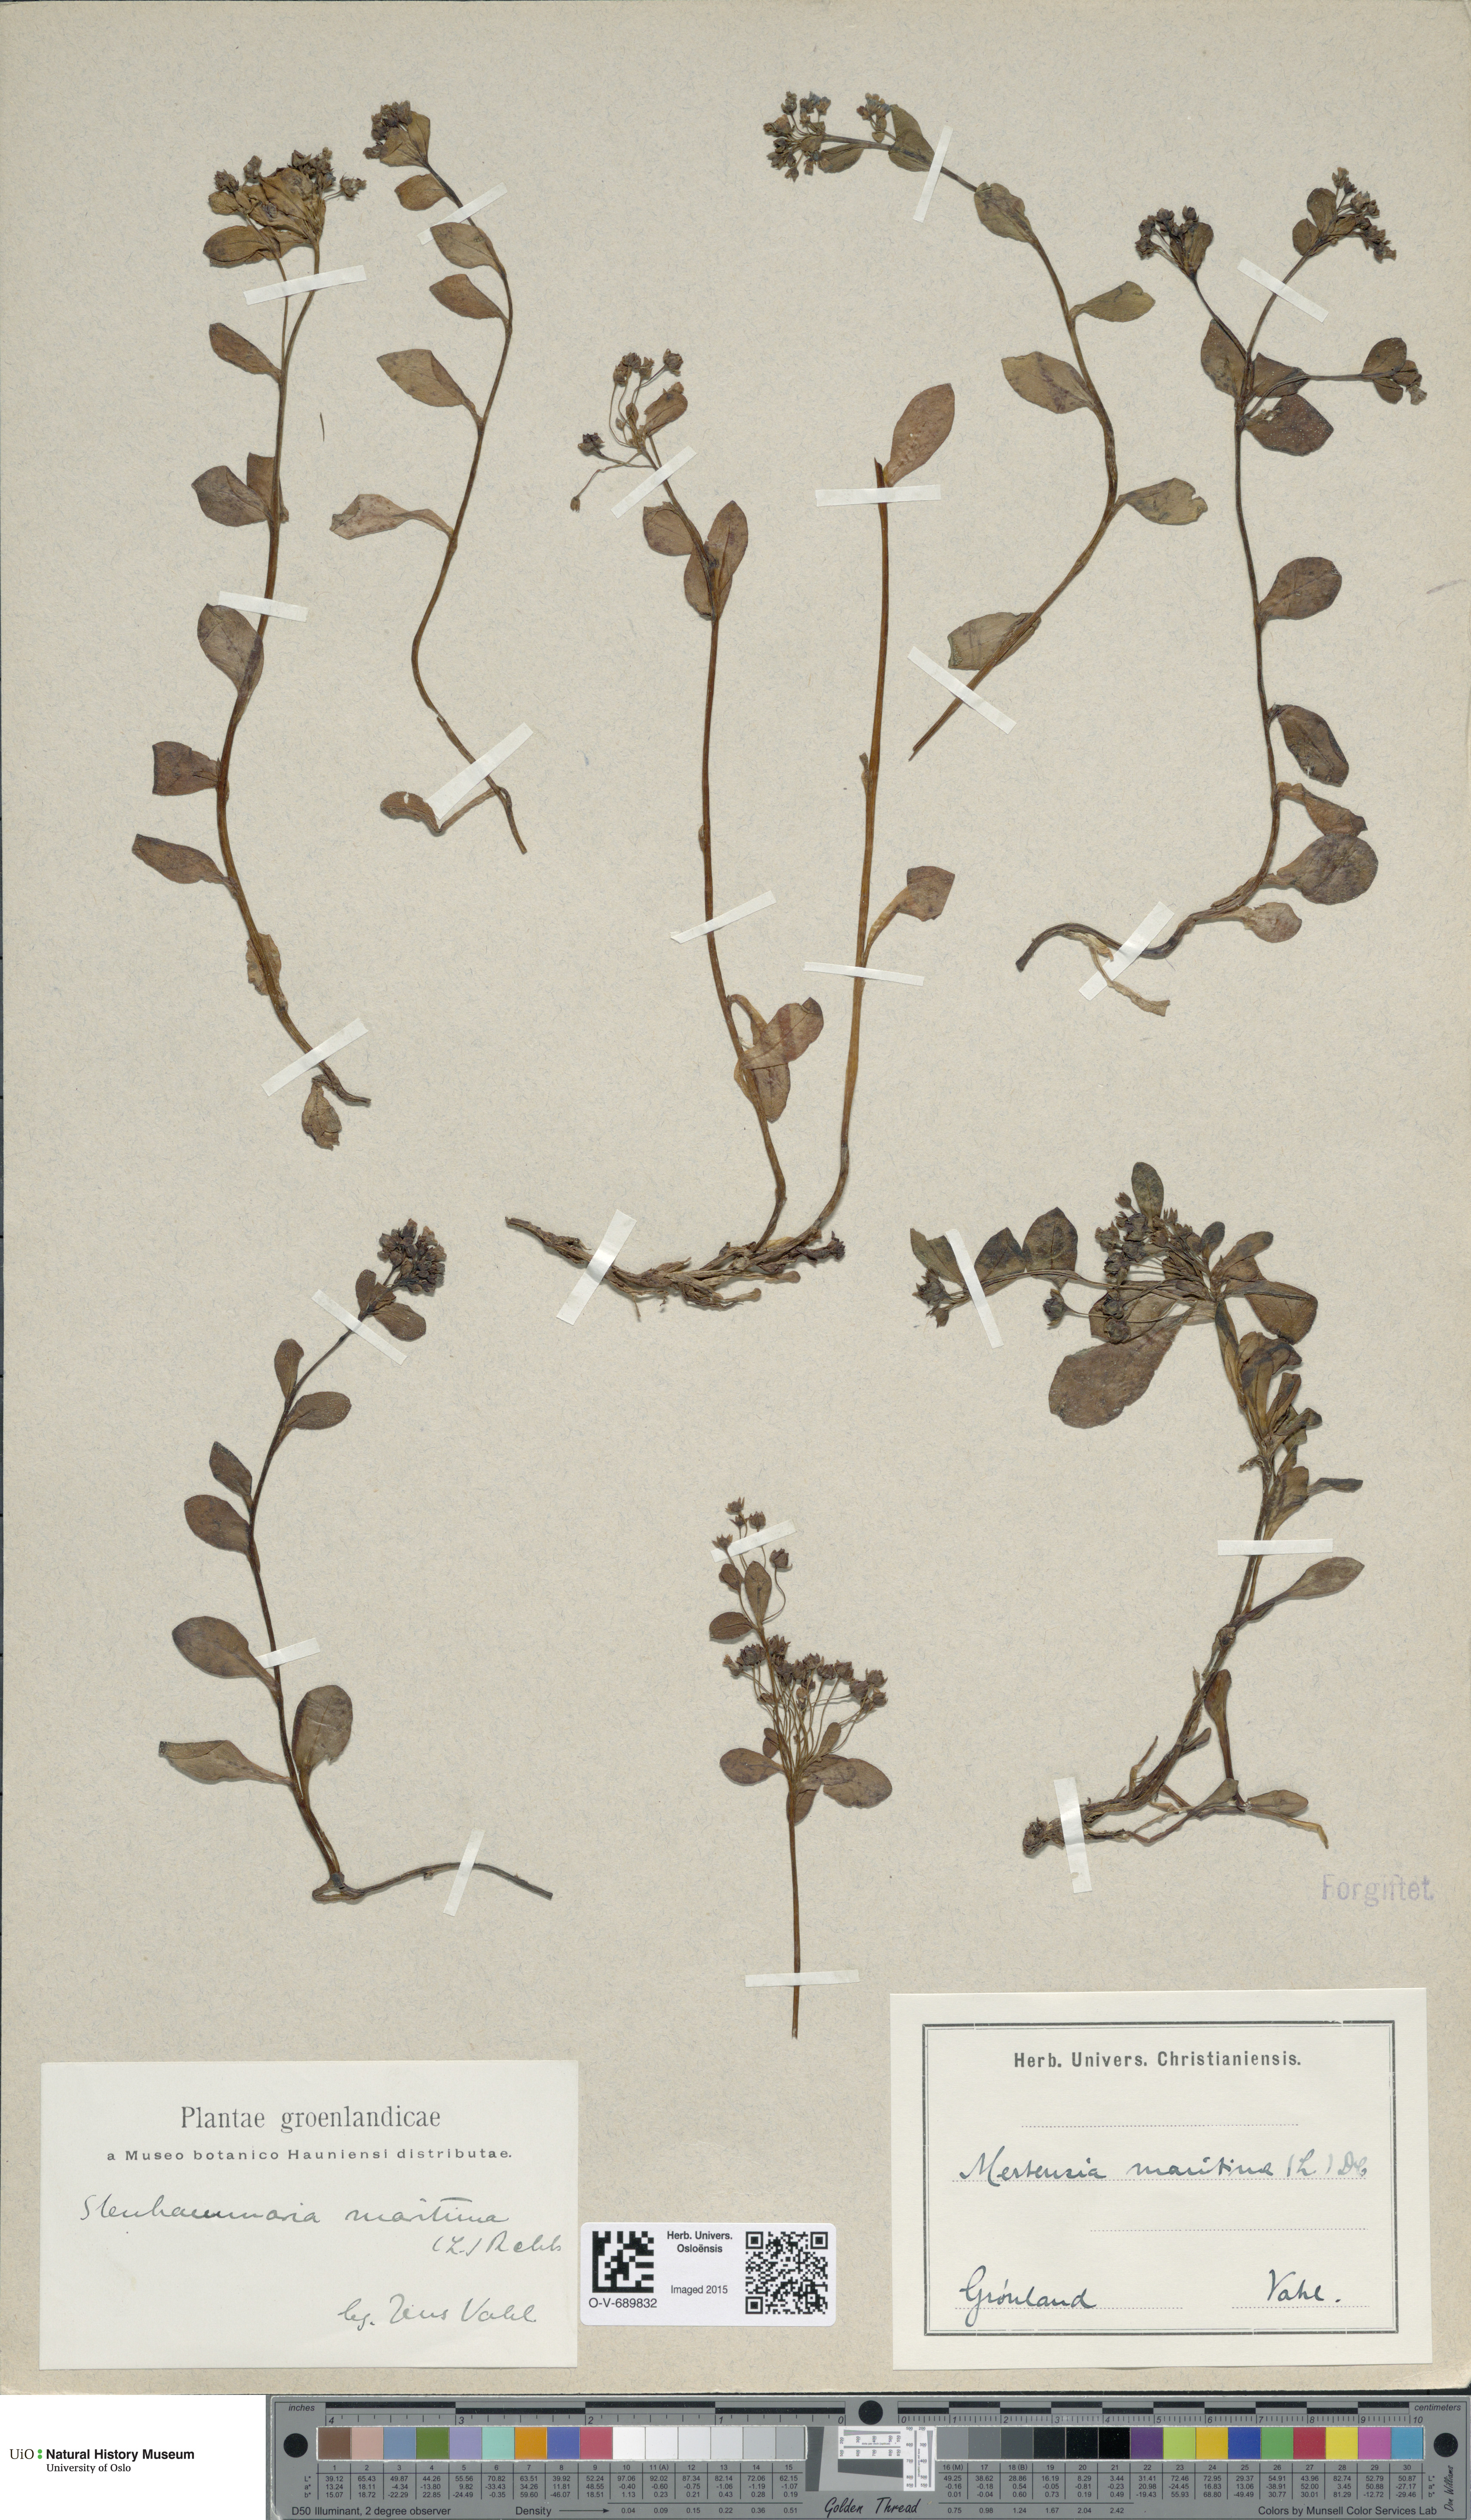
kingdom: Plantae
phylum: Tracheophyta
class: Magnoliopsida
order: Boraginales
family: Boraginaceae
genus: Mertensia
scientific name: Mertensia maritima
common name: Oysterplant
